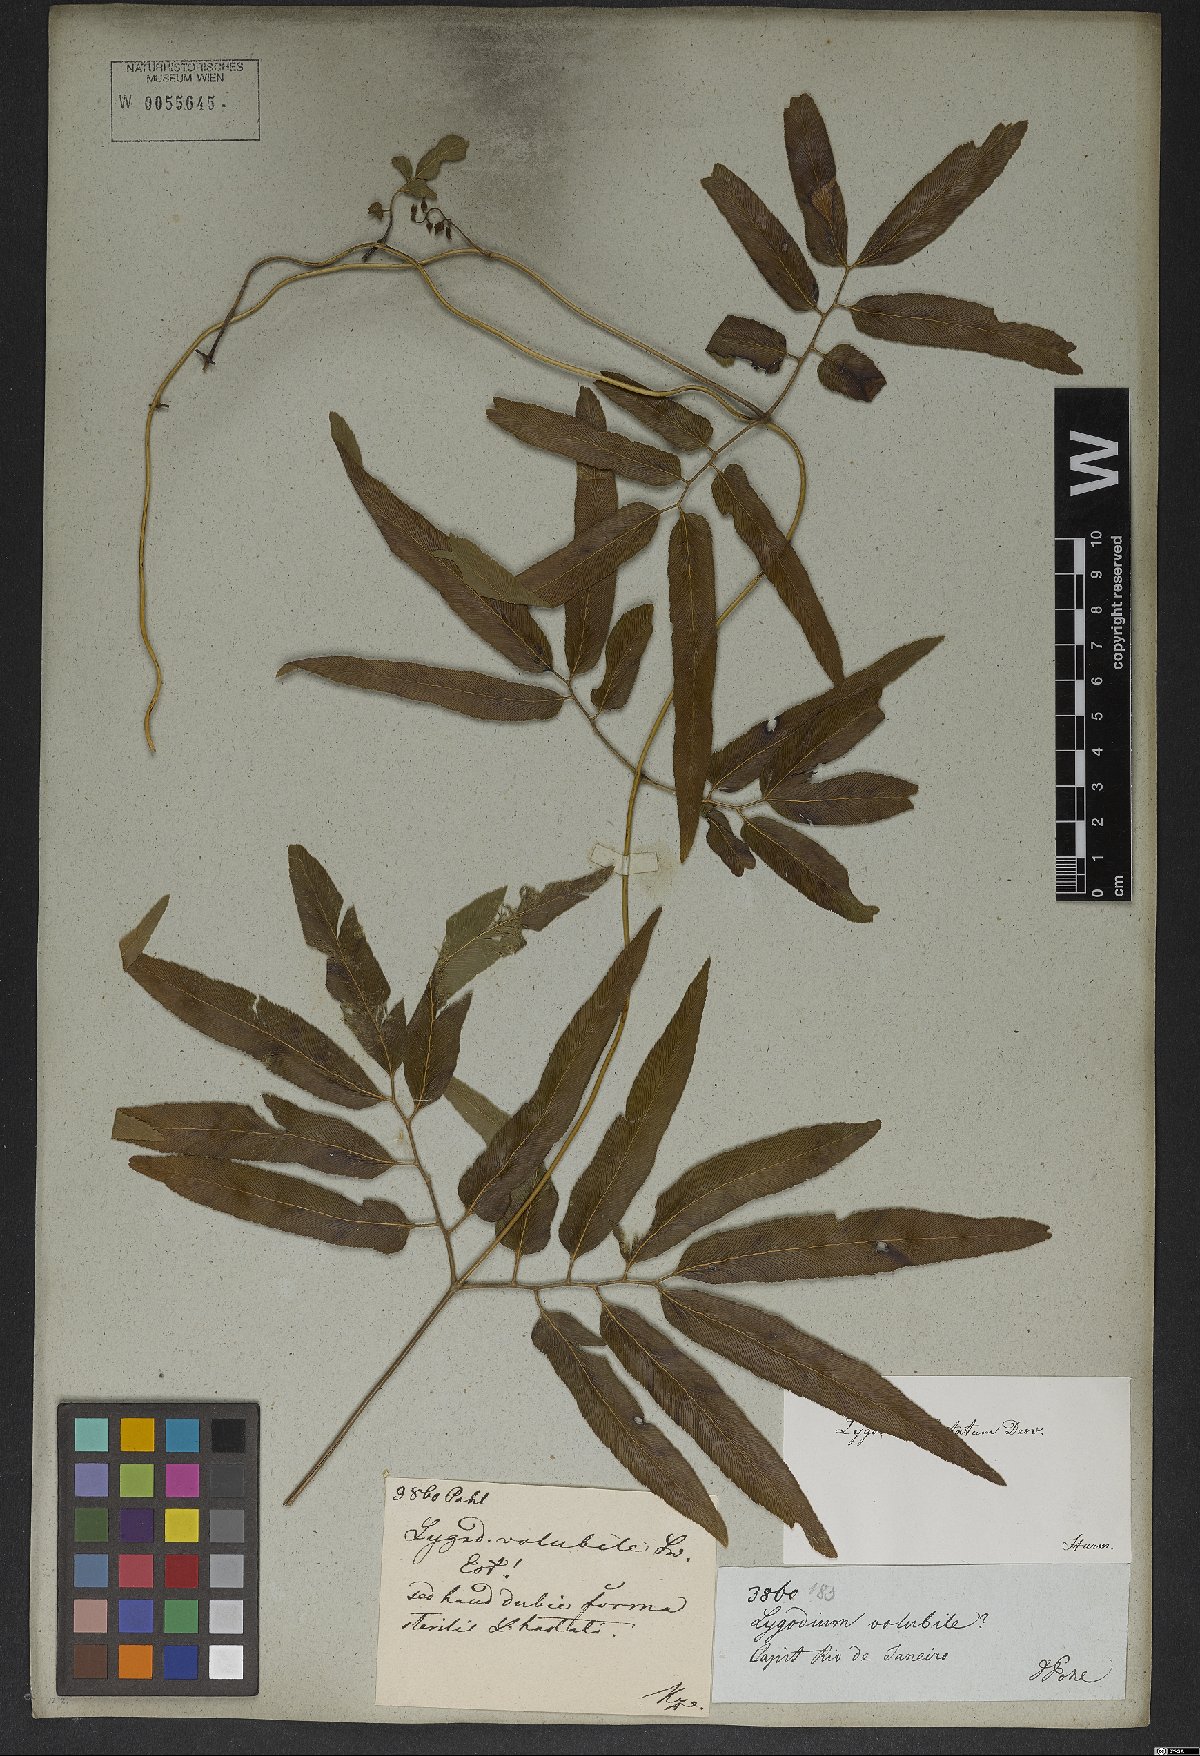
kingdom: Plantae
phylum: Tracheophyta
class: Polypodiopsida
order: Schizaeales
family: Lygodiaceae
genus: Lygodium
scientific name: Lygodium volubile
